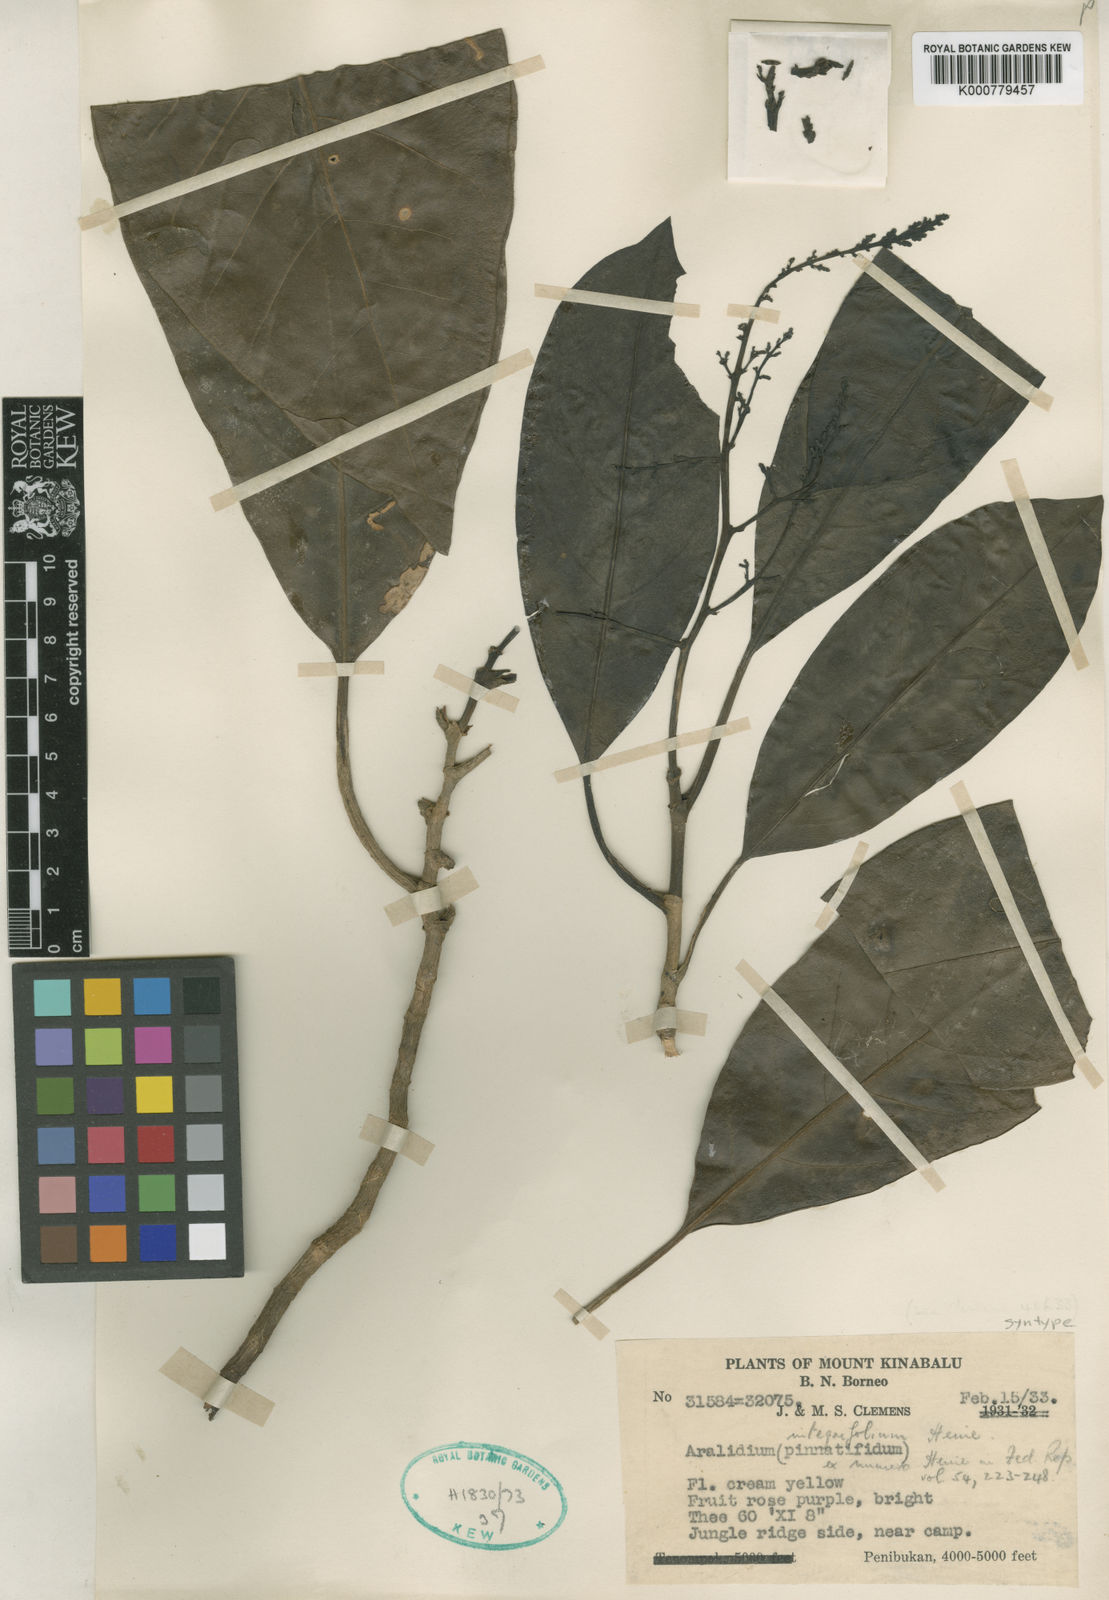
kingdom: Plantae
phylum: Tracheophyta
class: Magnoliopsida
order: Apiales
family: Torricelliaceae
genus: Aralidium
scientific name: Aralidium pinnatifidum
